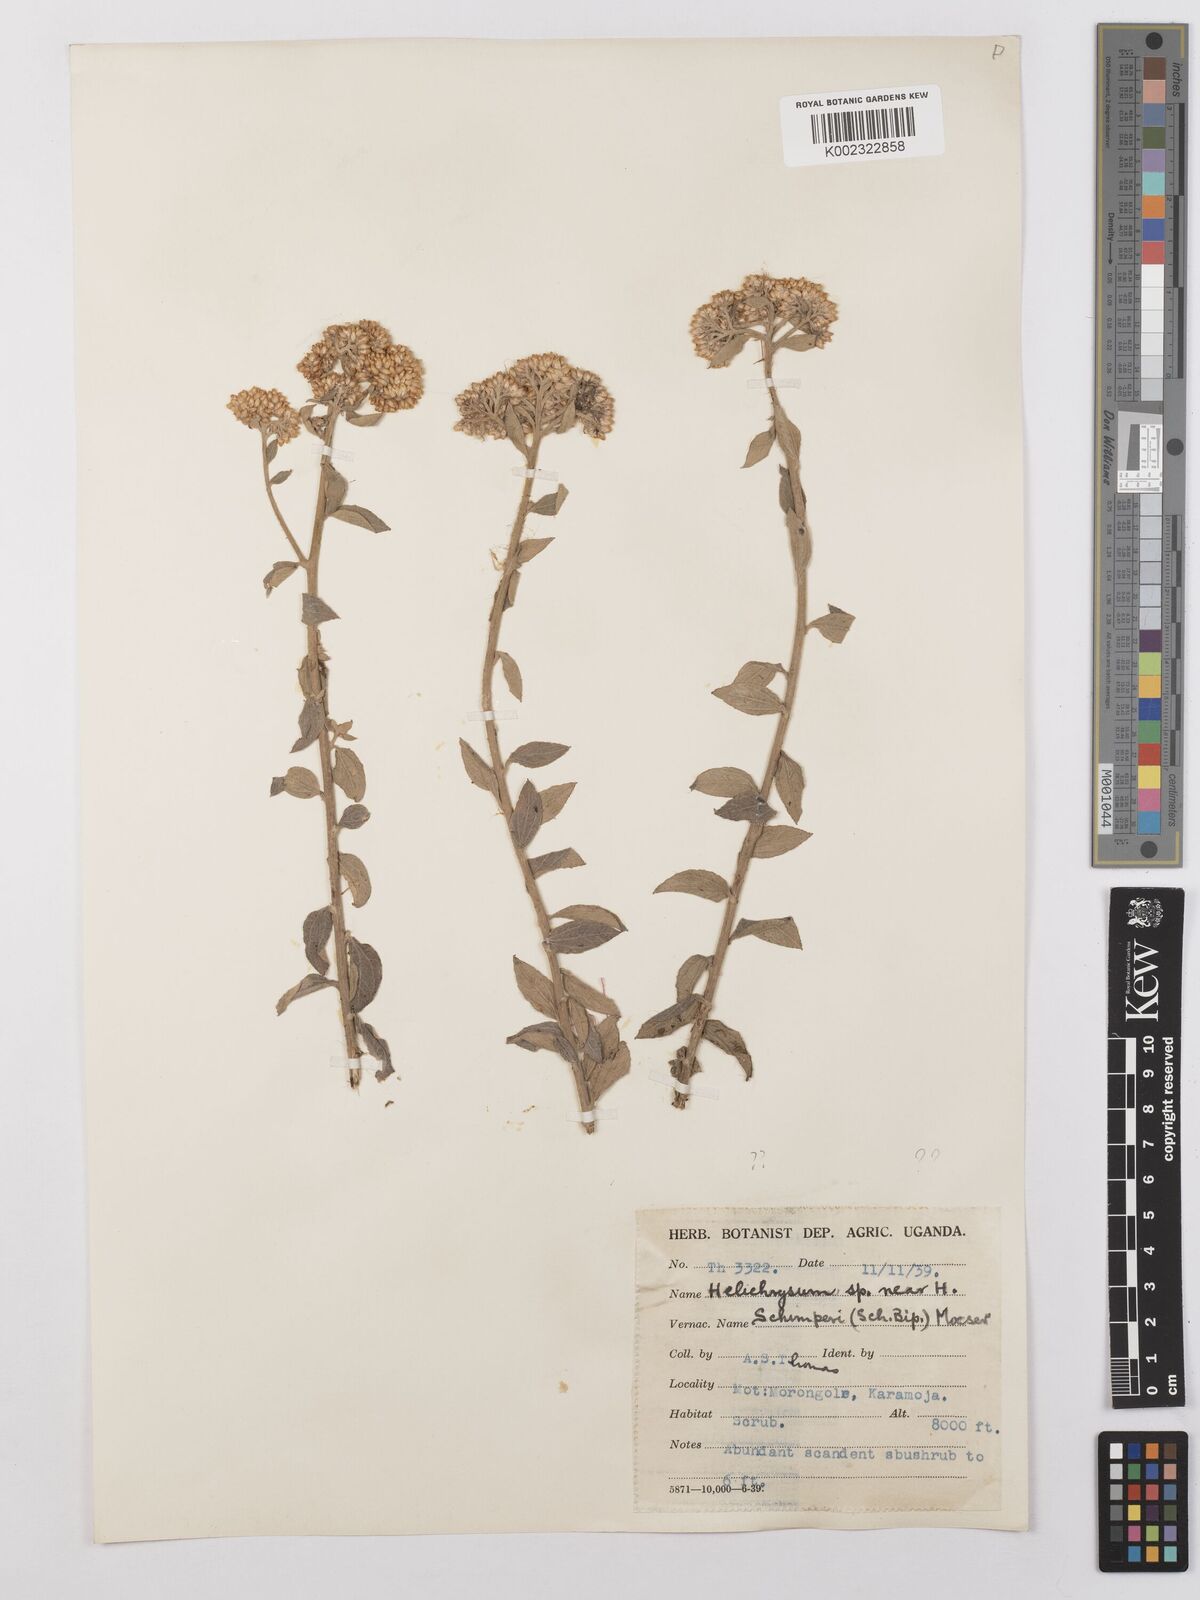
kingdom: Plantae
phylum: Tracheophyta
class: Magnoliopsida
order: Asterales
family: Asteraceae
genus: Helichrysum
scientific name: Helichrysum schimperi
